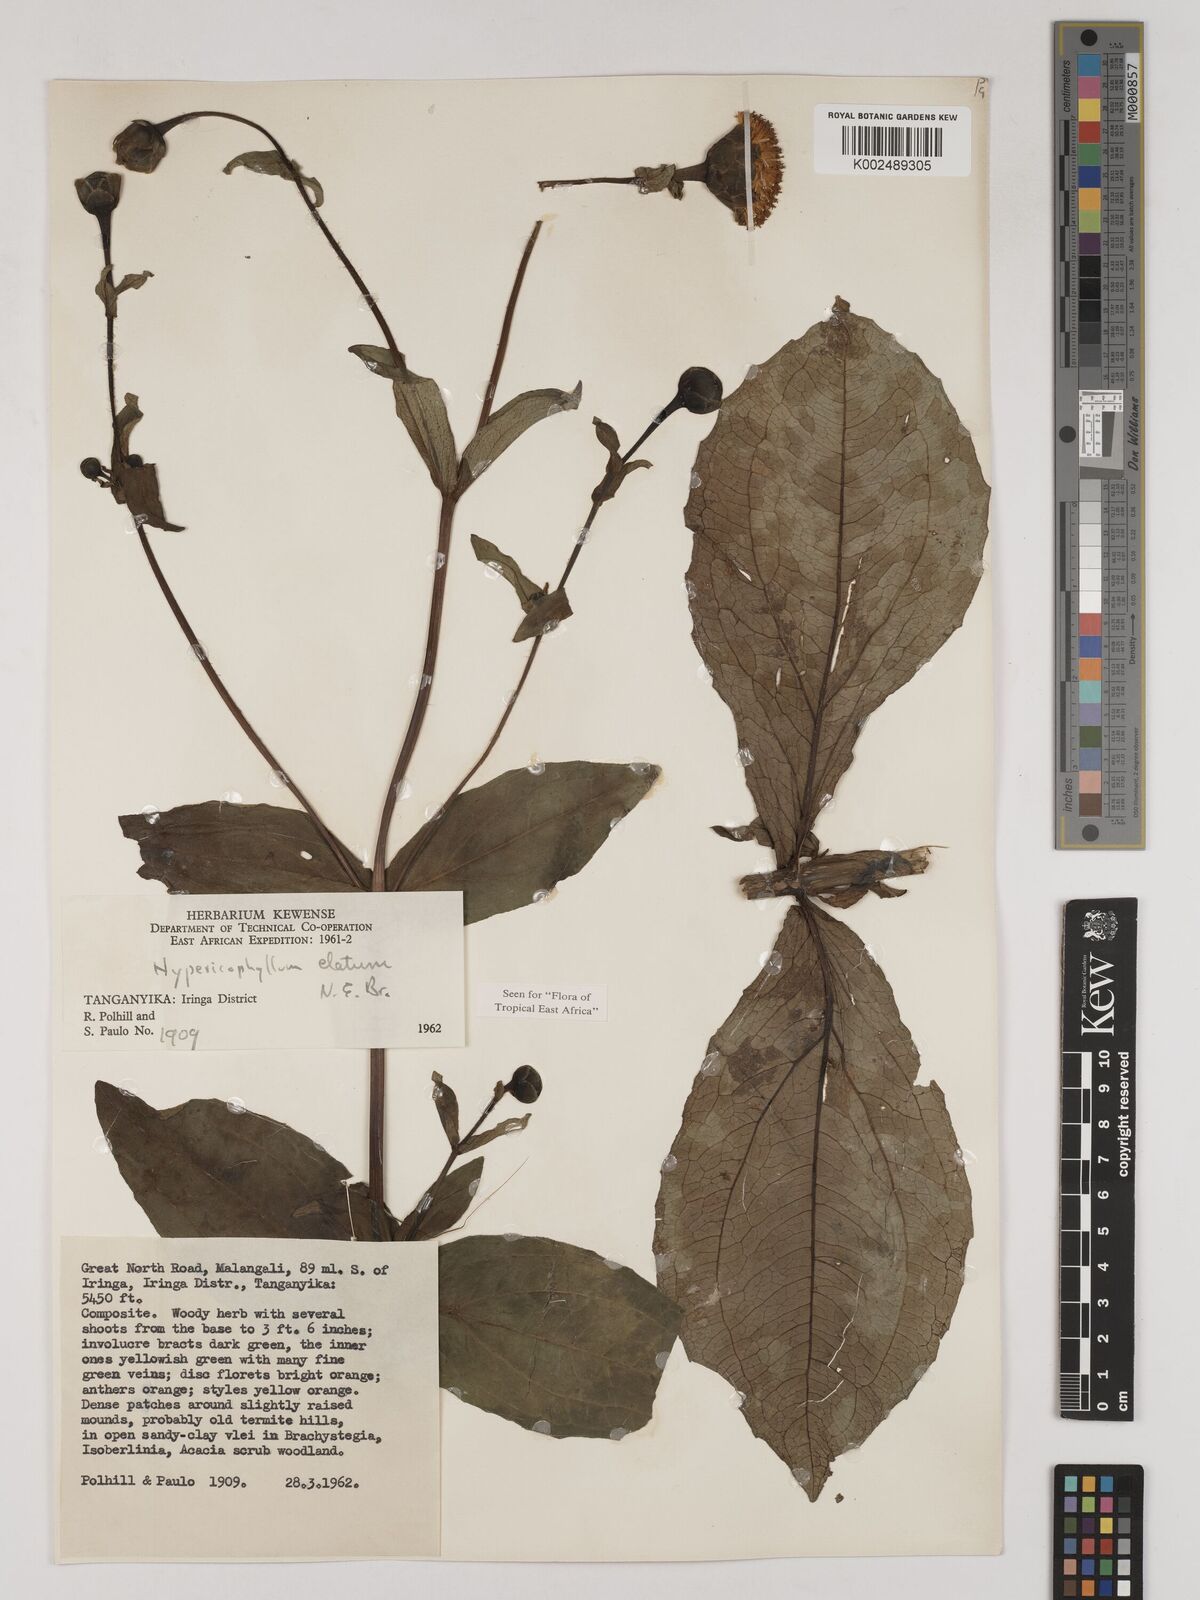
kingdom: Plantae
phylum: Tracheophyta
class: Magnoliopsida
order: Asterales
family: Asteraceae
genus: Hypericophyllum
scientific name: Hypericophyllum elatum
